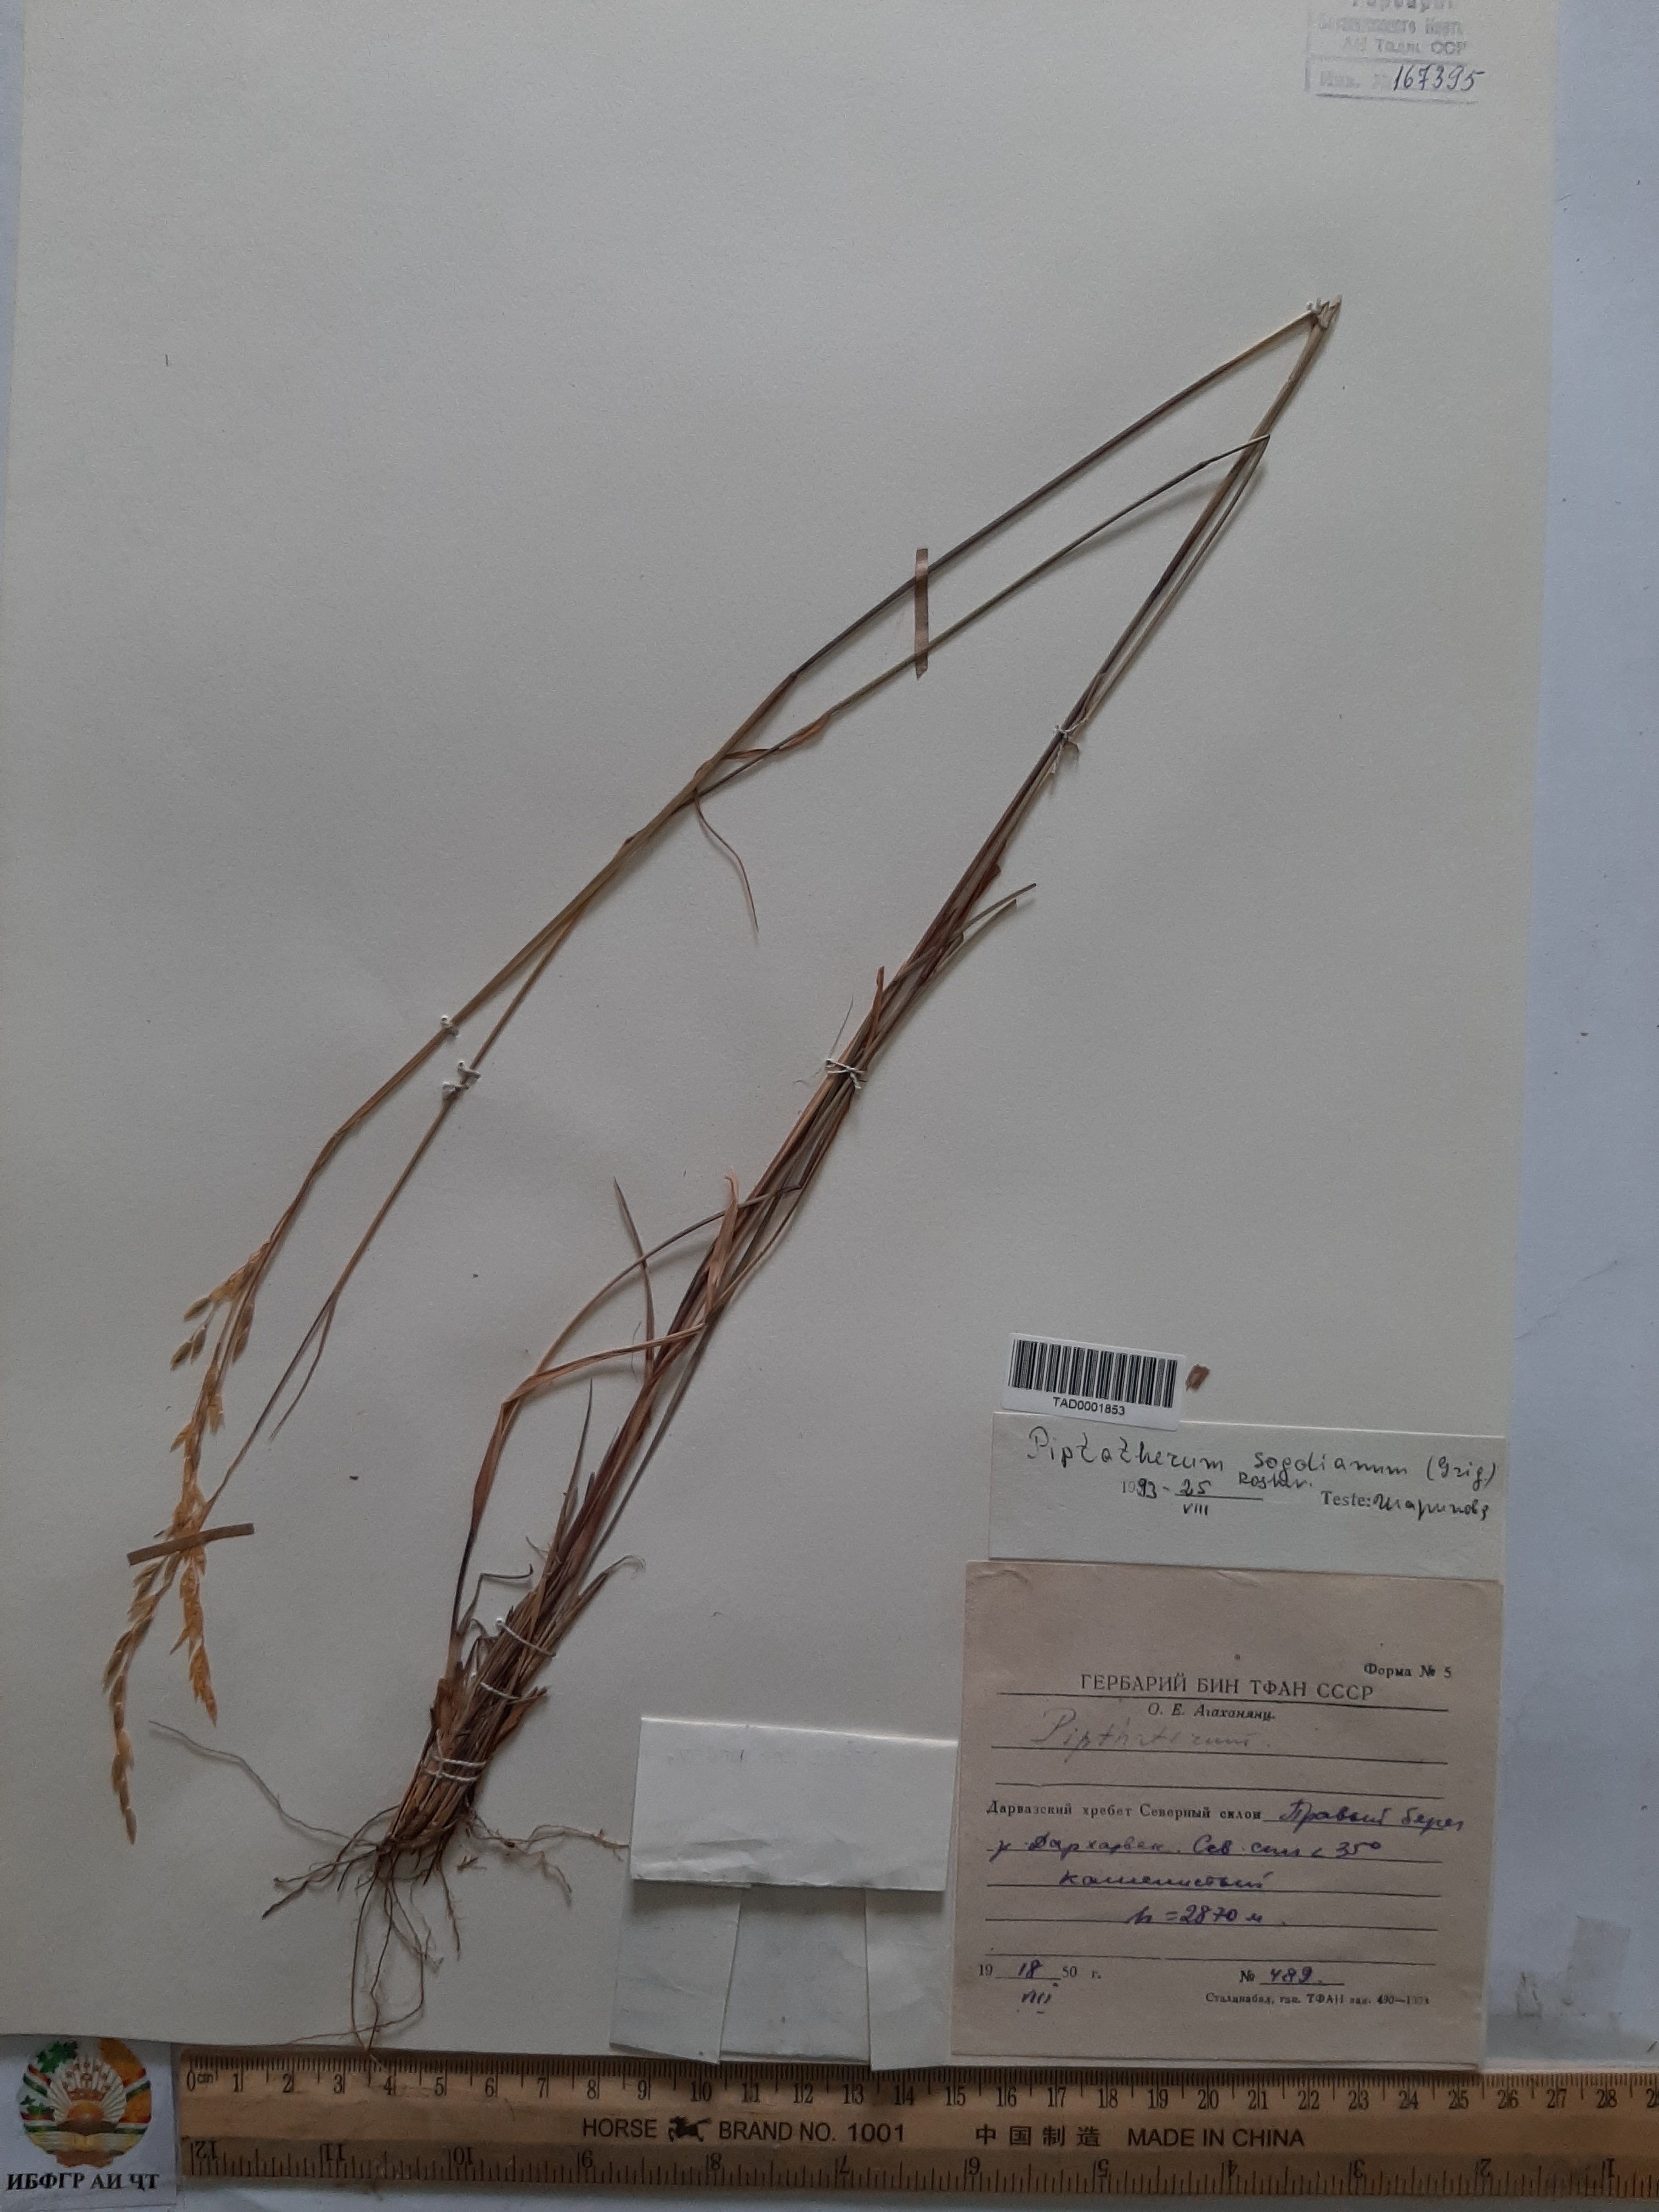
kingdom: Plantae
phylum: Tracheophyta
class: Liliopsida
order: Poales
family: Poaceae
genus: Piptatherum
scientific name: Piptatherum sogdianum
